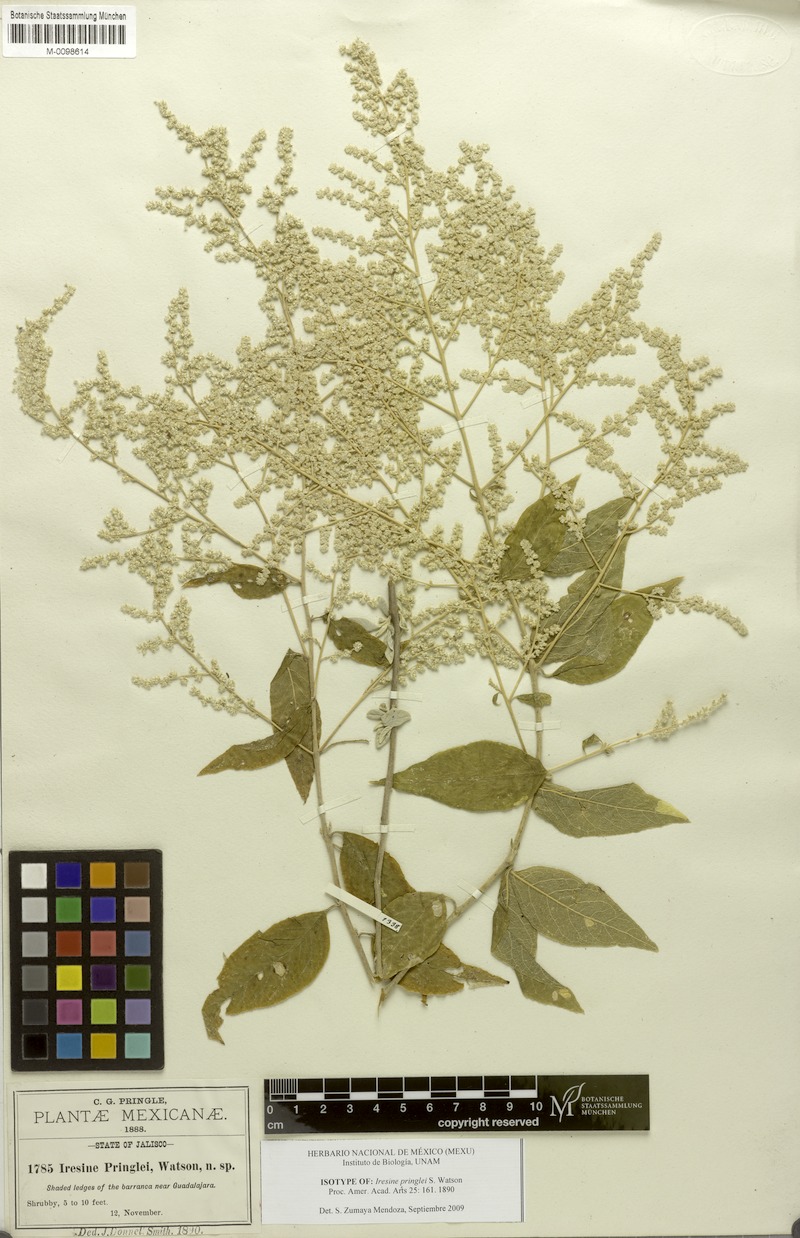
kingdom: Plantae
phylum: Tracheophyta
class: Magnoliopsida
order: Caryophyllales
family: Amaranthaceae
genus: Iresine
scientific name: Iresine pringlei
